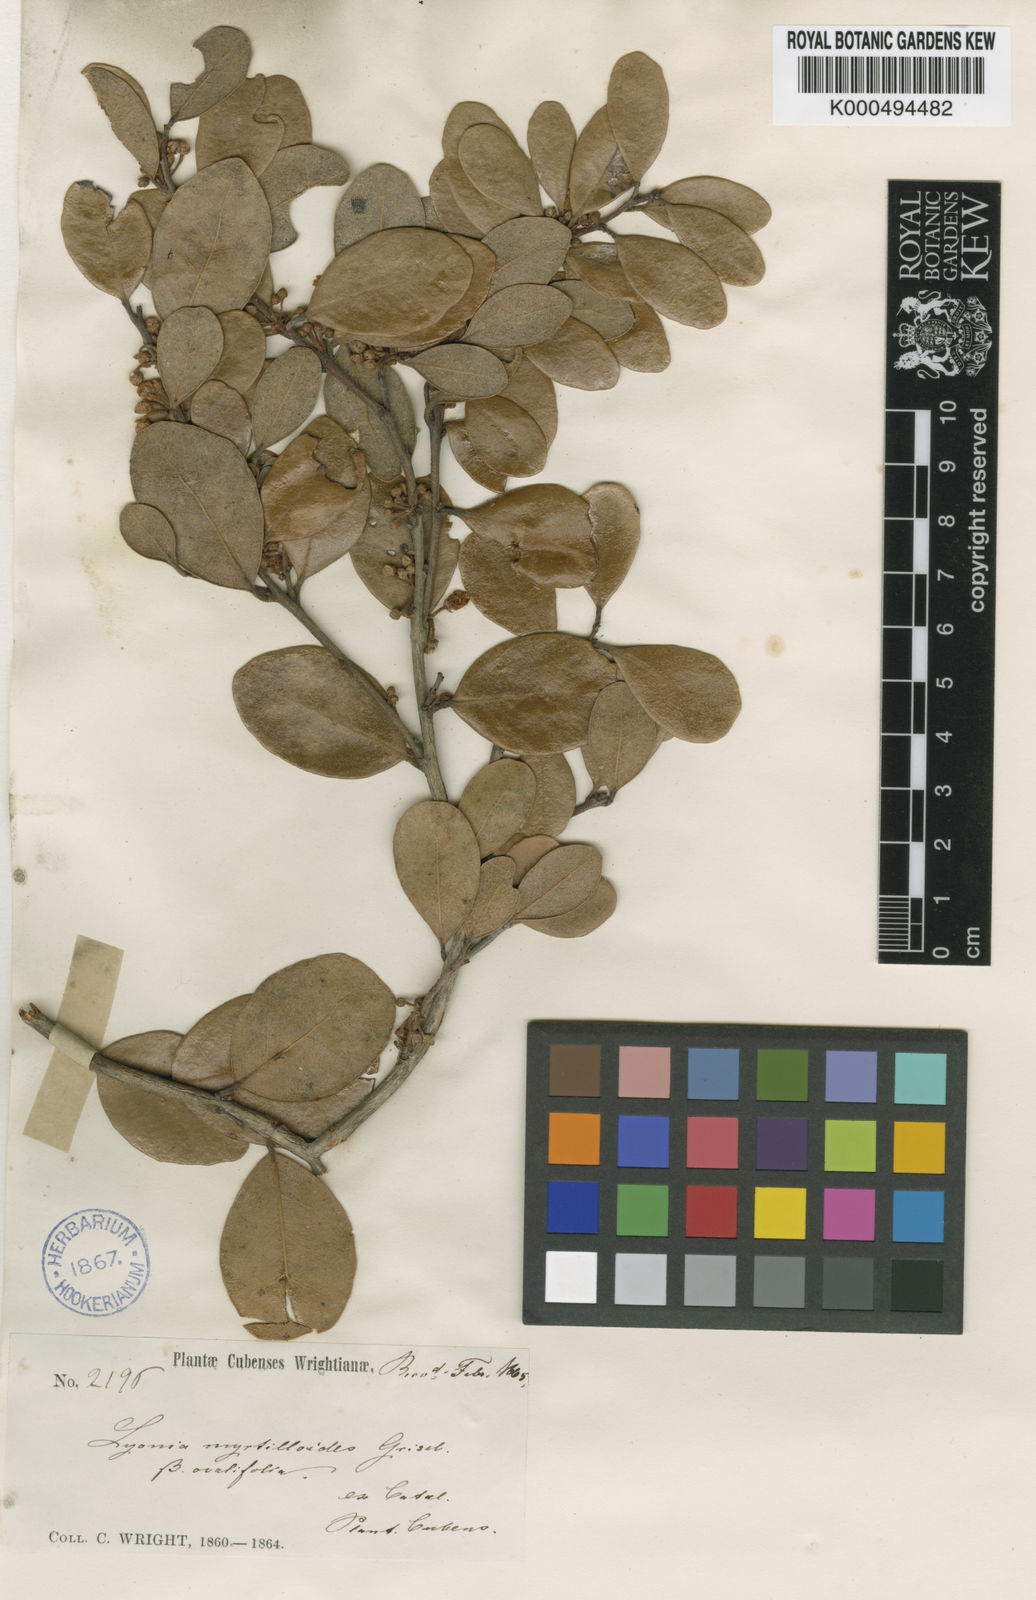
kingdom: Plantae
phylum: Tracheophyta
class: Magnoliopsida
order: Ericales
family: Ericaceae
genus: Lyonia
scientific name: Lyonia myrtilloides
